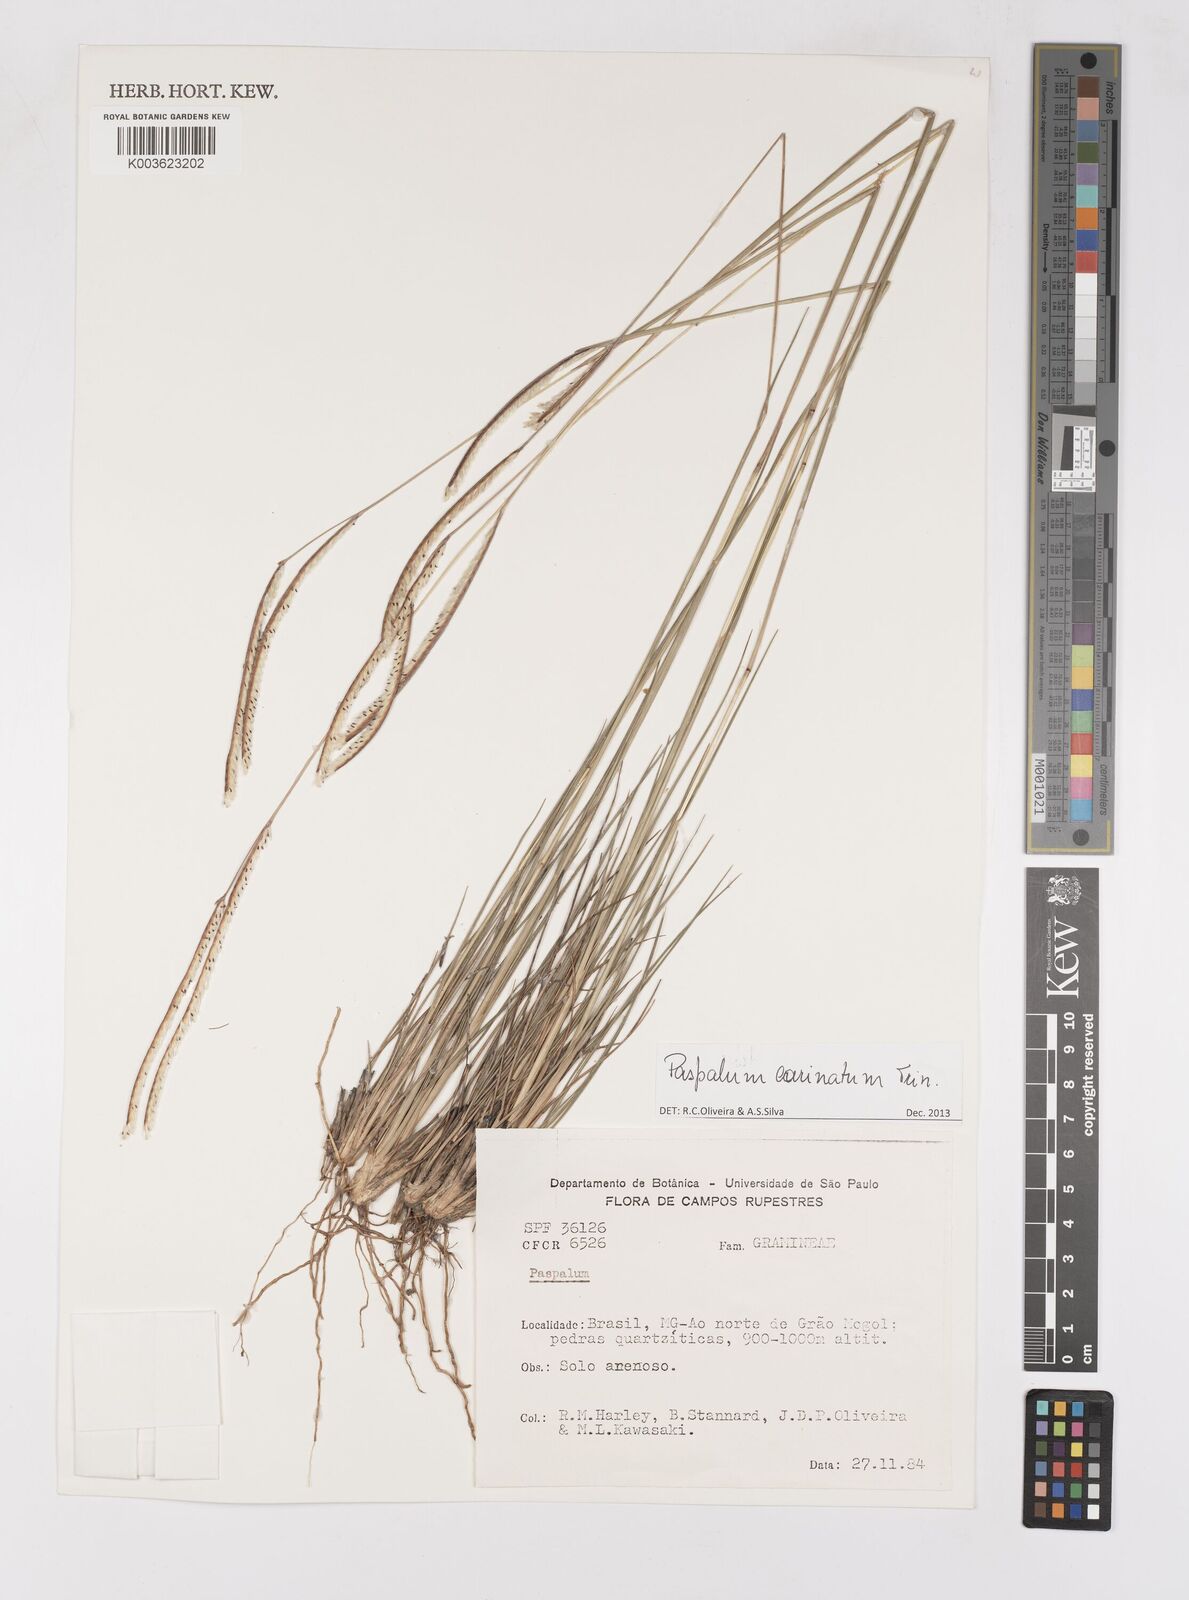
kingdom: Plantae
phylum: Tracheophyta
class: Liliopsida
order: Poales
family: Poaceae
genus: Paspalum
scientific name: Paspalum carinatum
